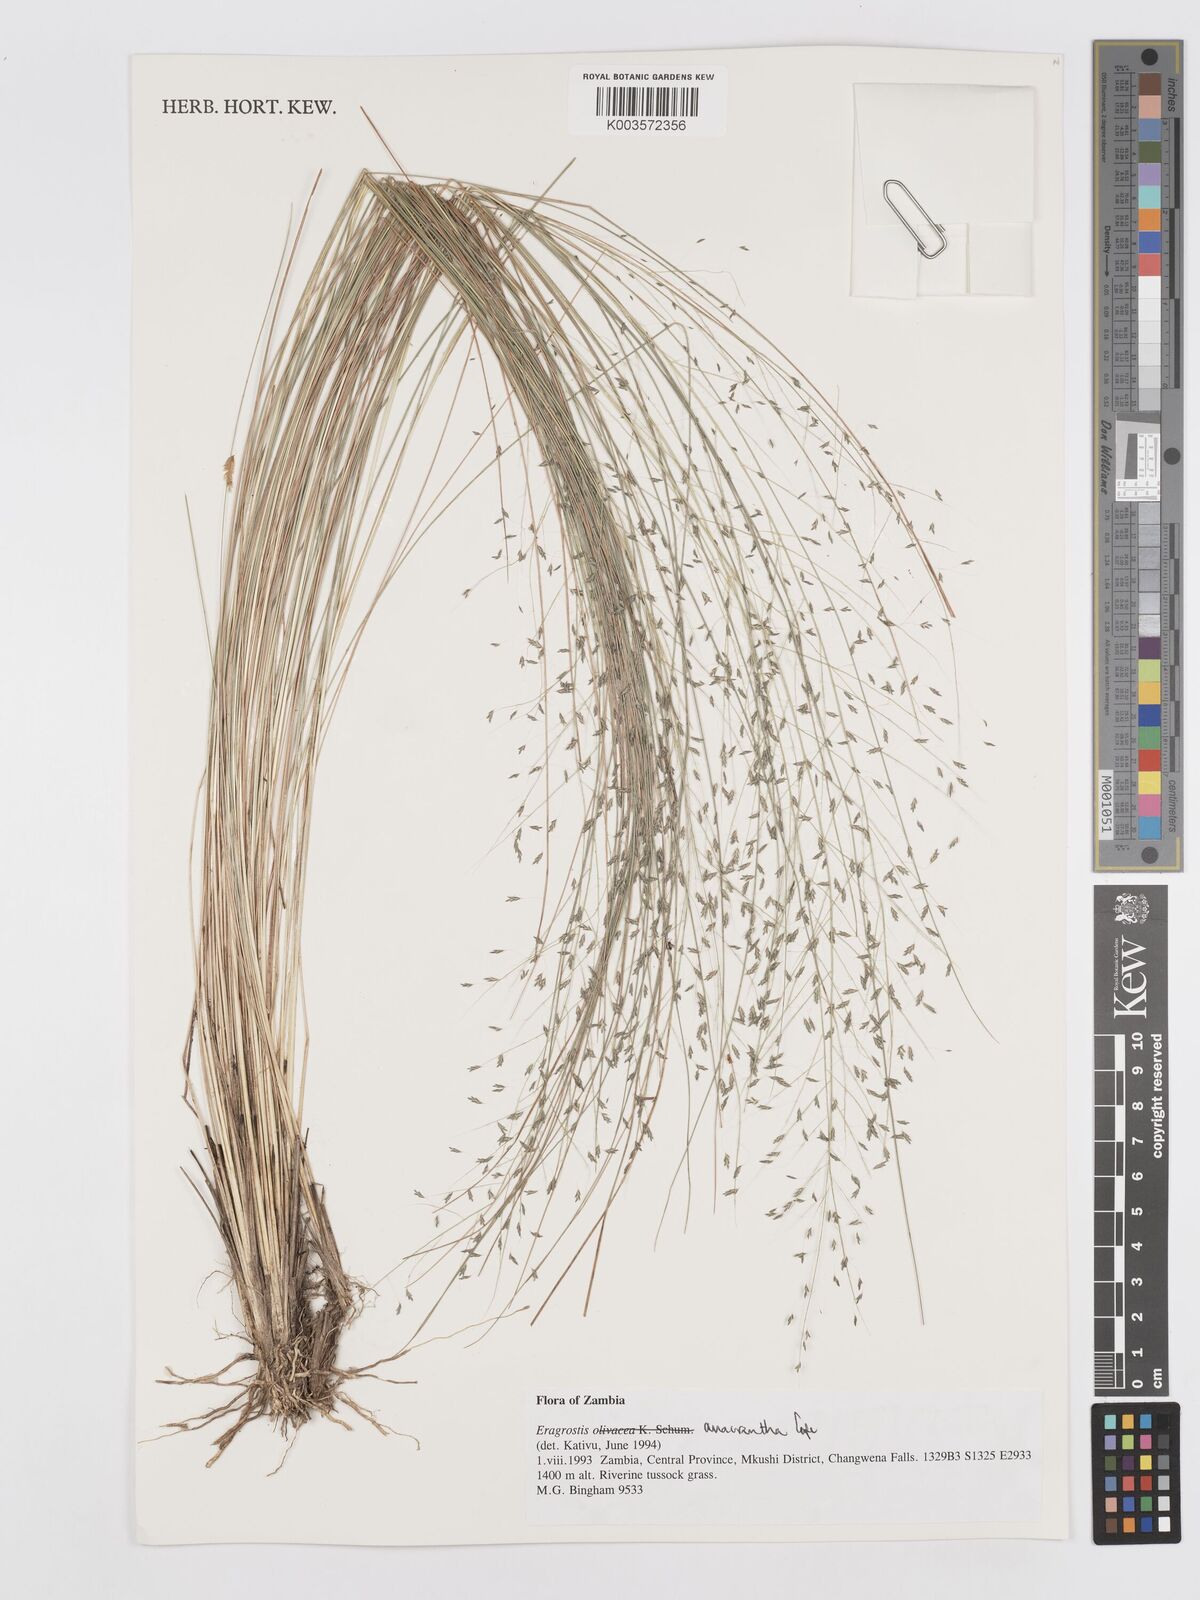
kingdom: Plantae
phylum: Tracheophyta
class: Liliopsida
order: Poales
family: Poaceae
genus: Eragrostis
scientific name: Eragrostis anacrantha
